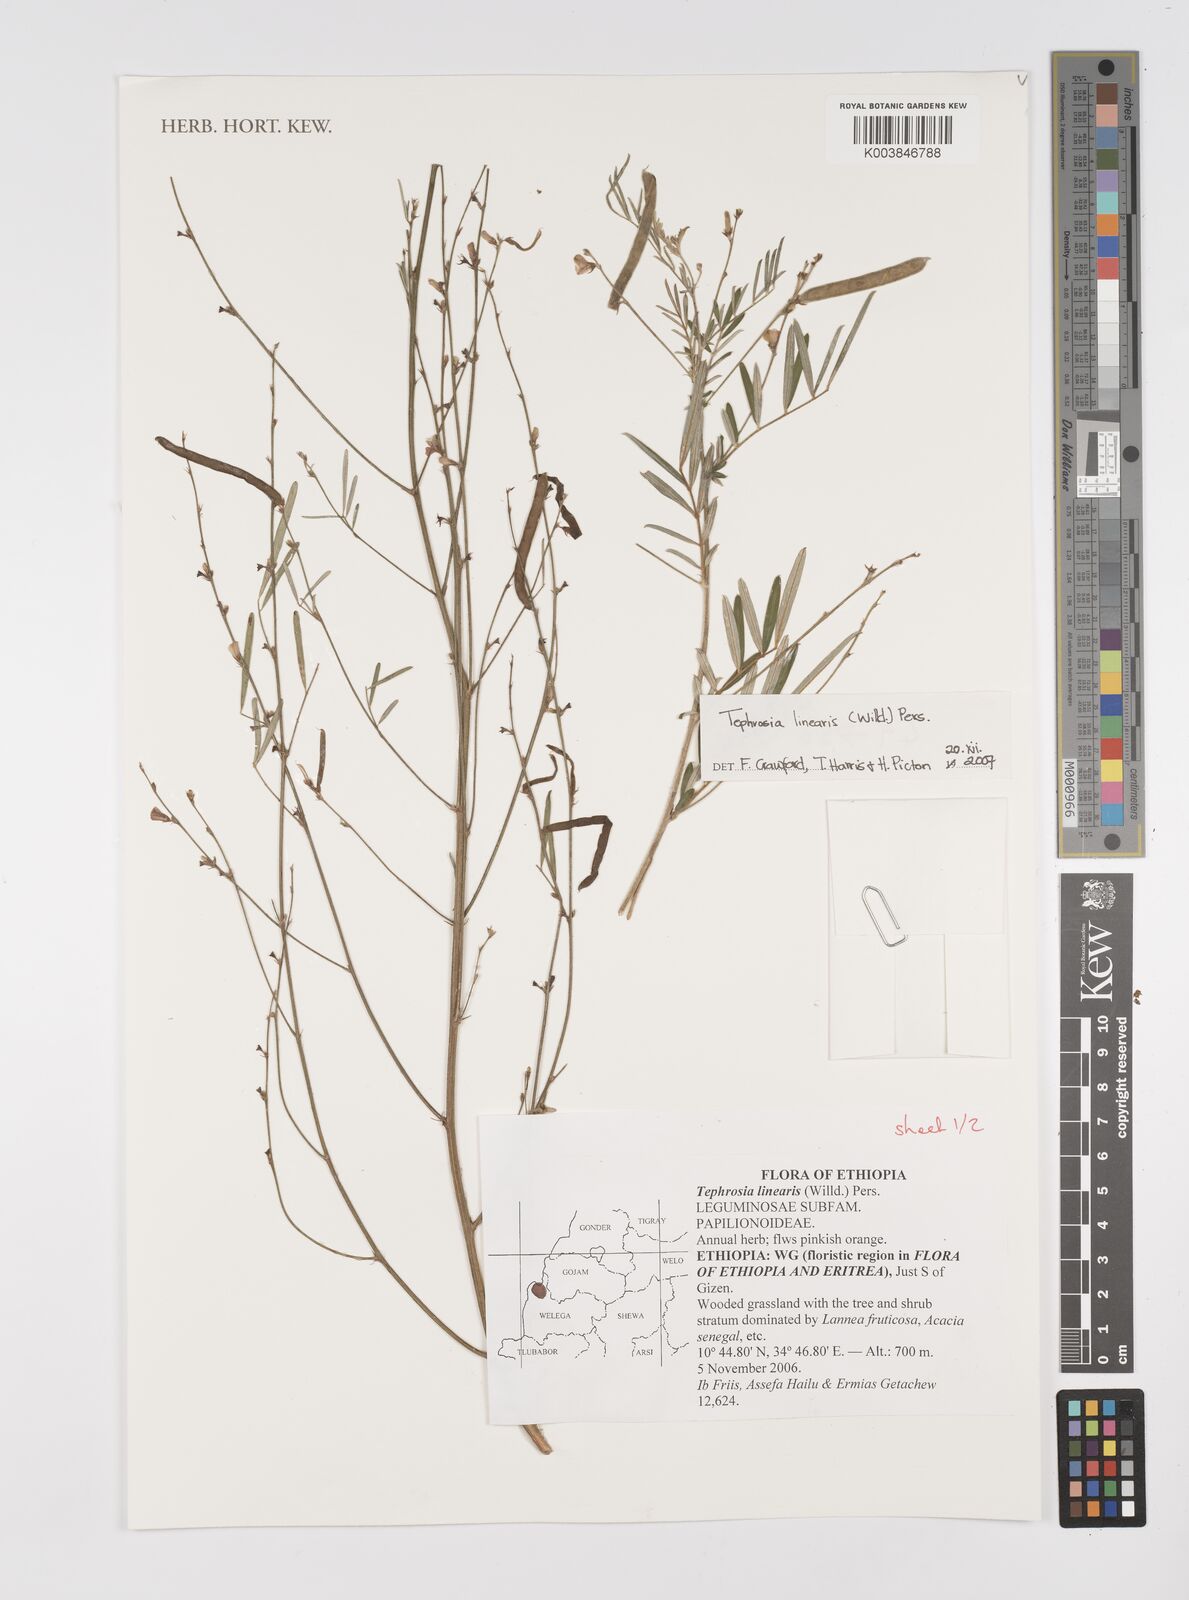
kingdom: Plantae
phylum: Tracheophyta
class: Magnoliopsida
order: Fabales
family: Fabaceae
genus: Tephrosia
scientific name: Tephrosia linearis
